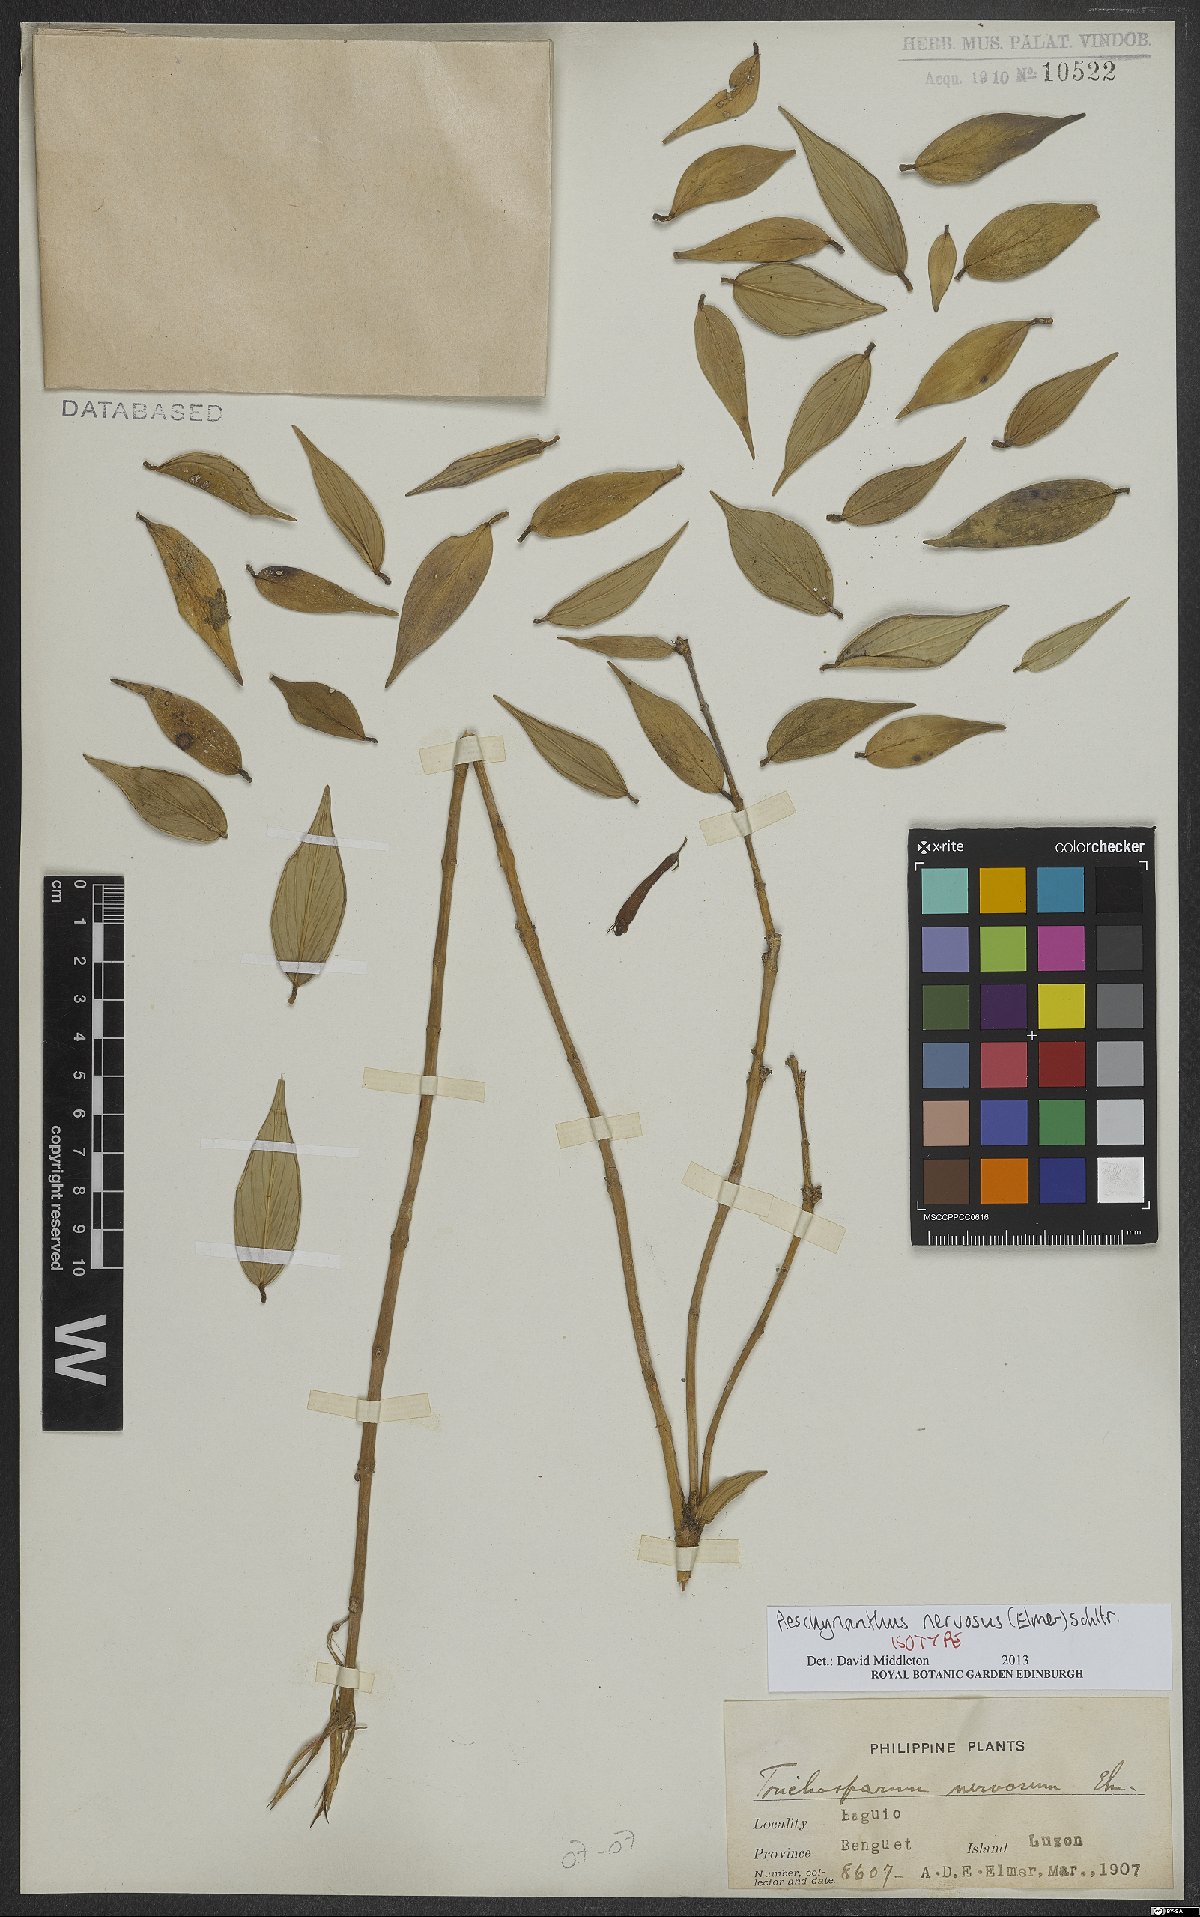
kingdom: Plantae
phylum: Tracheophyta
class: Magnoliopsida
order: Lamiales
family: Gesneriaceae
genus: Aeschynanthus
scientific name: Aeschynanthus nervosus
